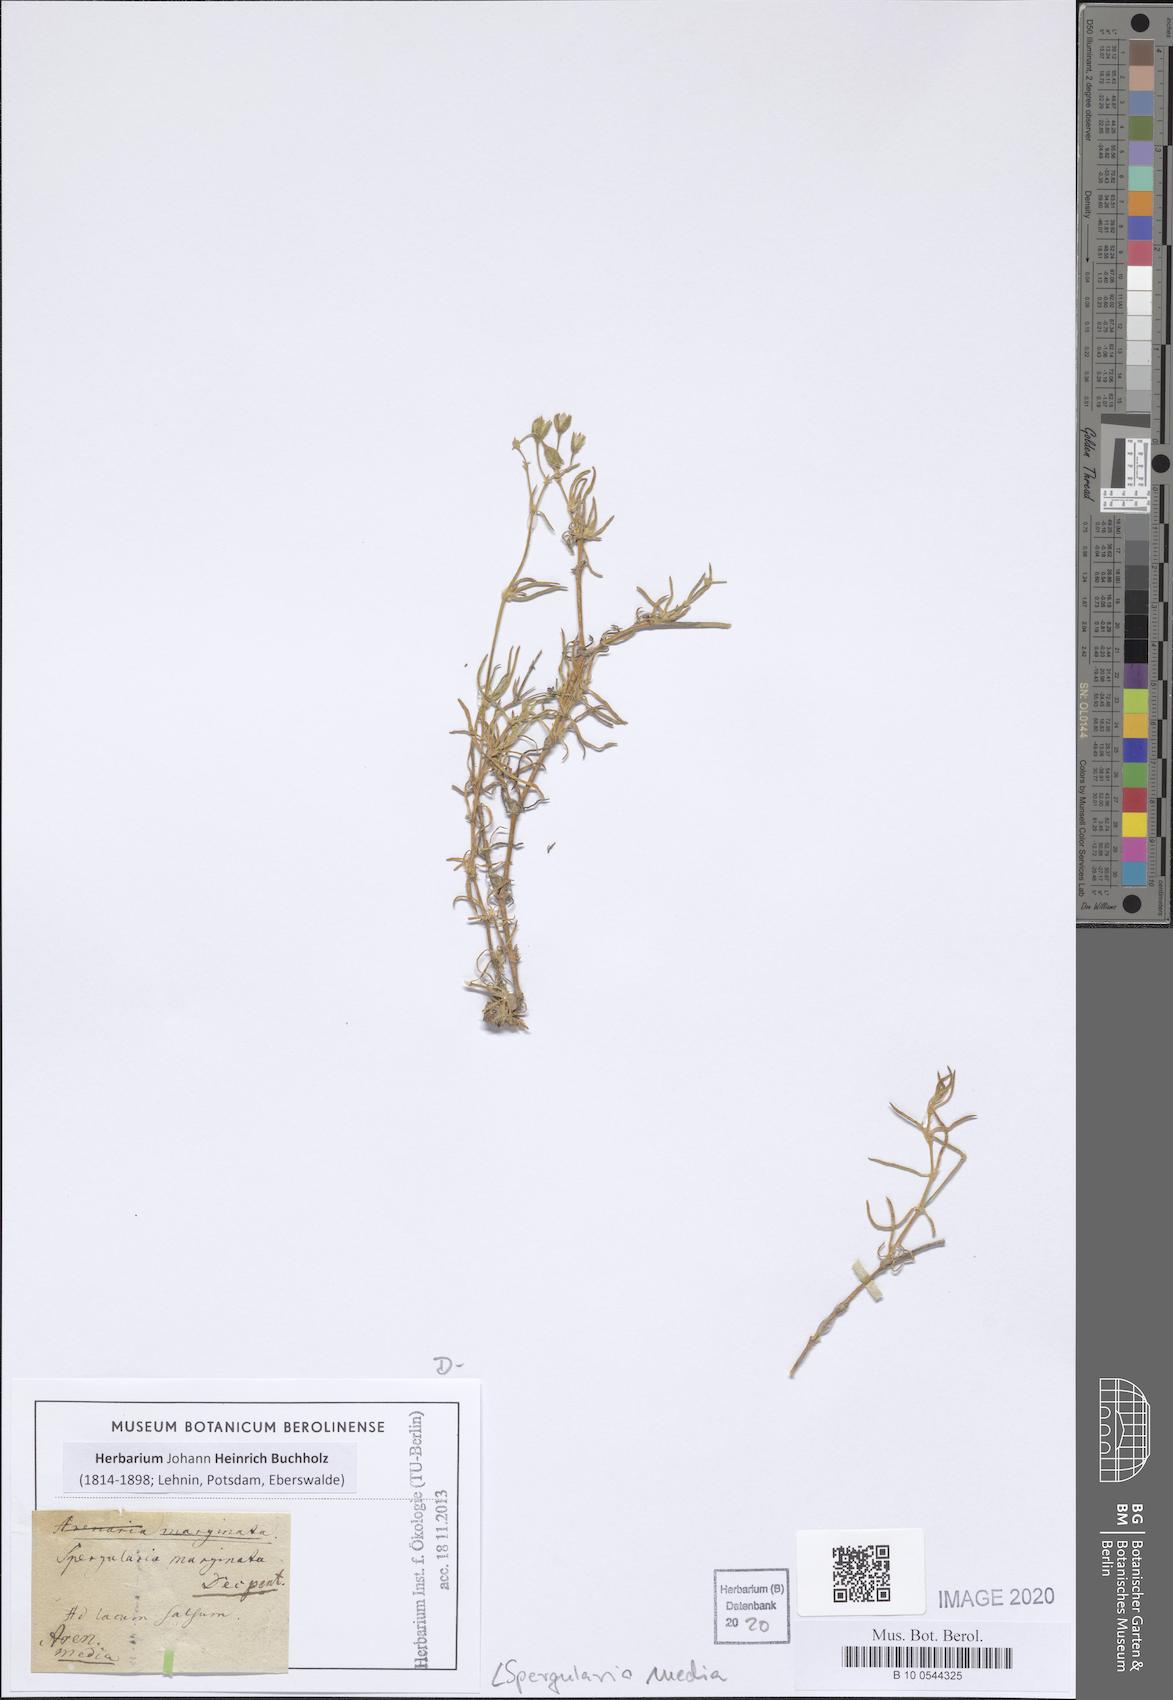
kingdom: Plantae
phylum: Tracheophyta
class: Magnoliopsida
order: Caryophyllales
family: Caryophyllaceae
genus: Spergularia
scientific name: Spergularia media
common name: Greater sea-spurrey
